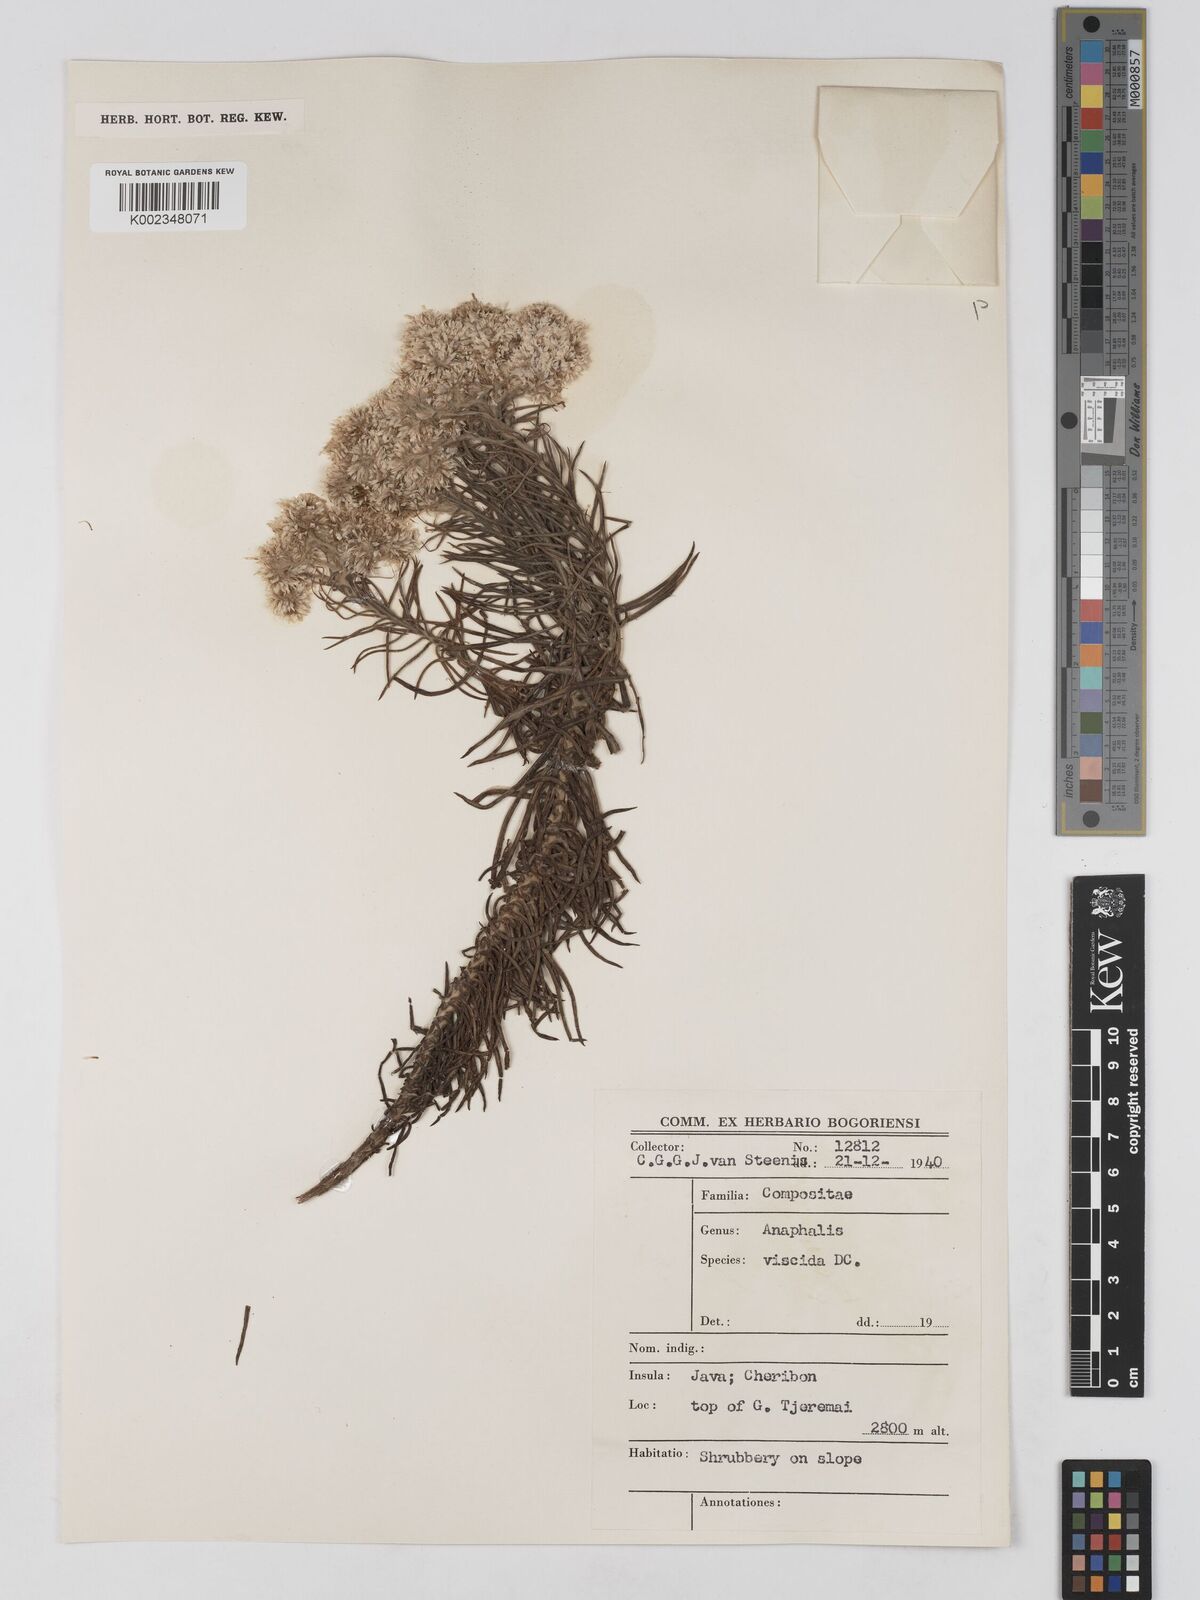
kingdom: Plantae
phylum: Tracheophyta
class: Magnoliopsida
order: Asterales
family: Asteraceae
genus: Anaphalis
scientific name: Anaphalis viscida
